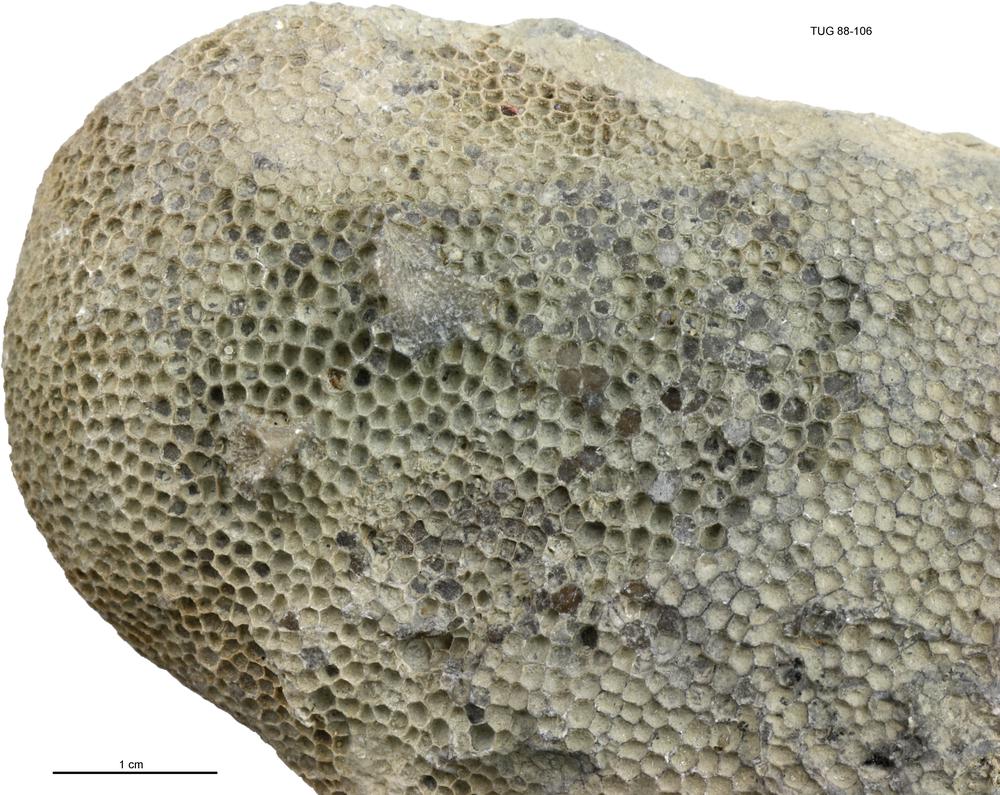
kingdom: Animalia
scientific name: Animalia
